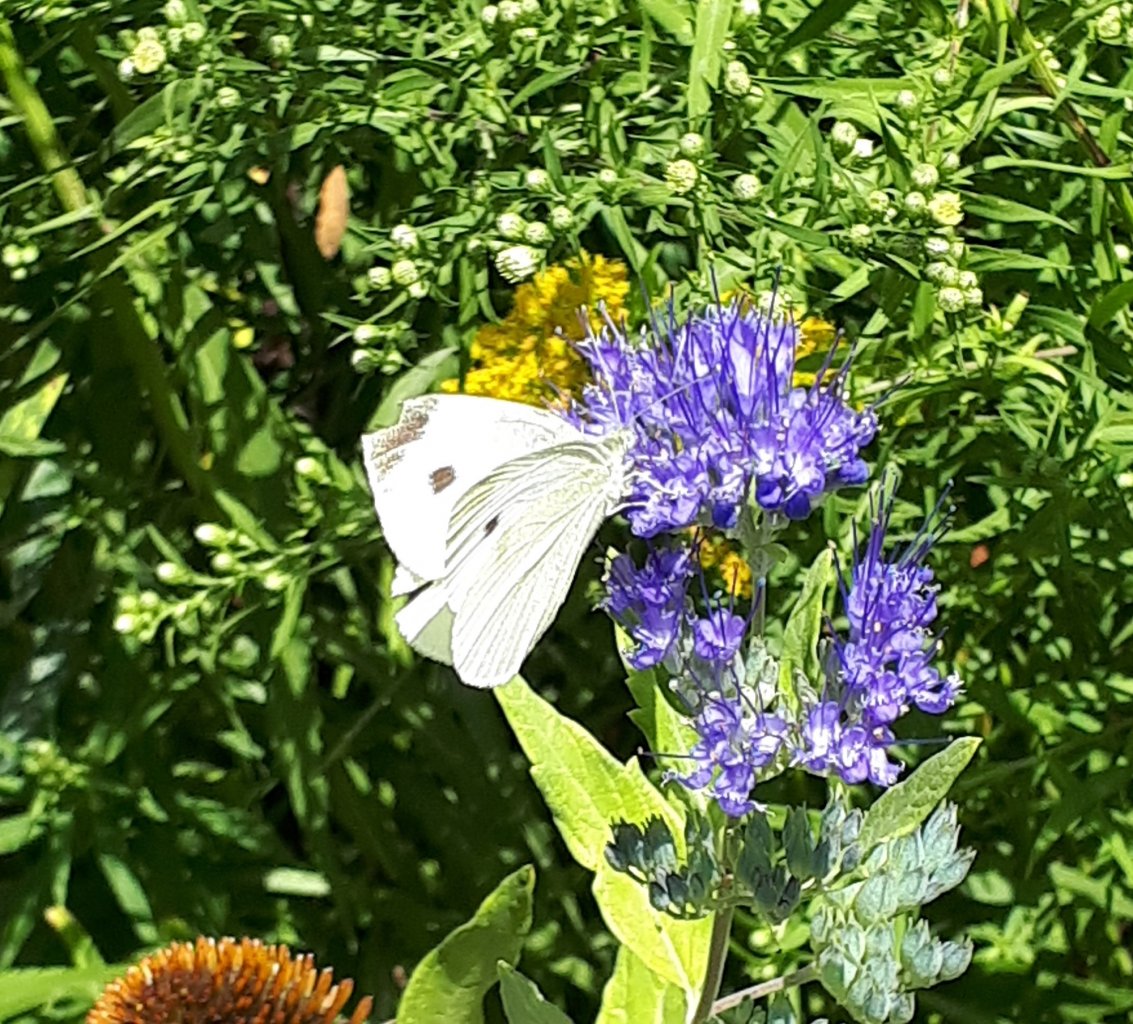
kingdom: Animalia
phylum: Arthropoda
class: Insecta
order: Lepidoptera
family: Pieridae
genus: Pieris
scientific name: Pieris rapae
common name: Cabbage White
